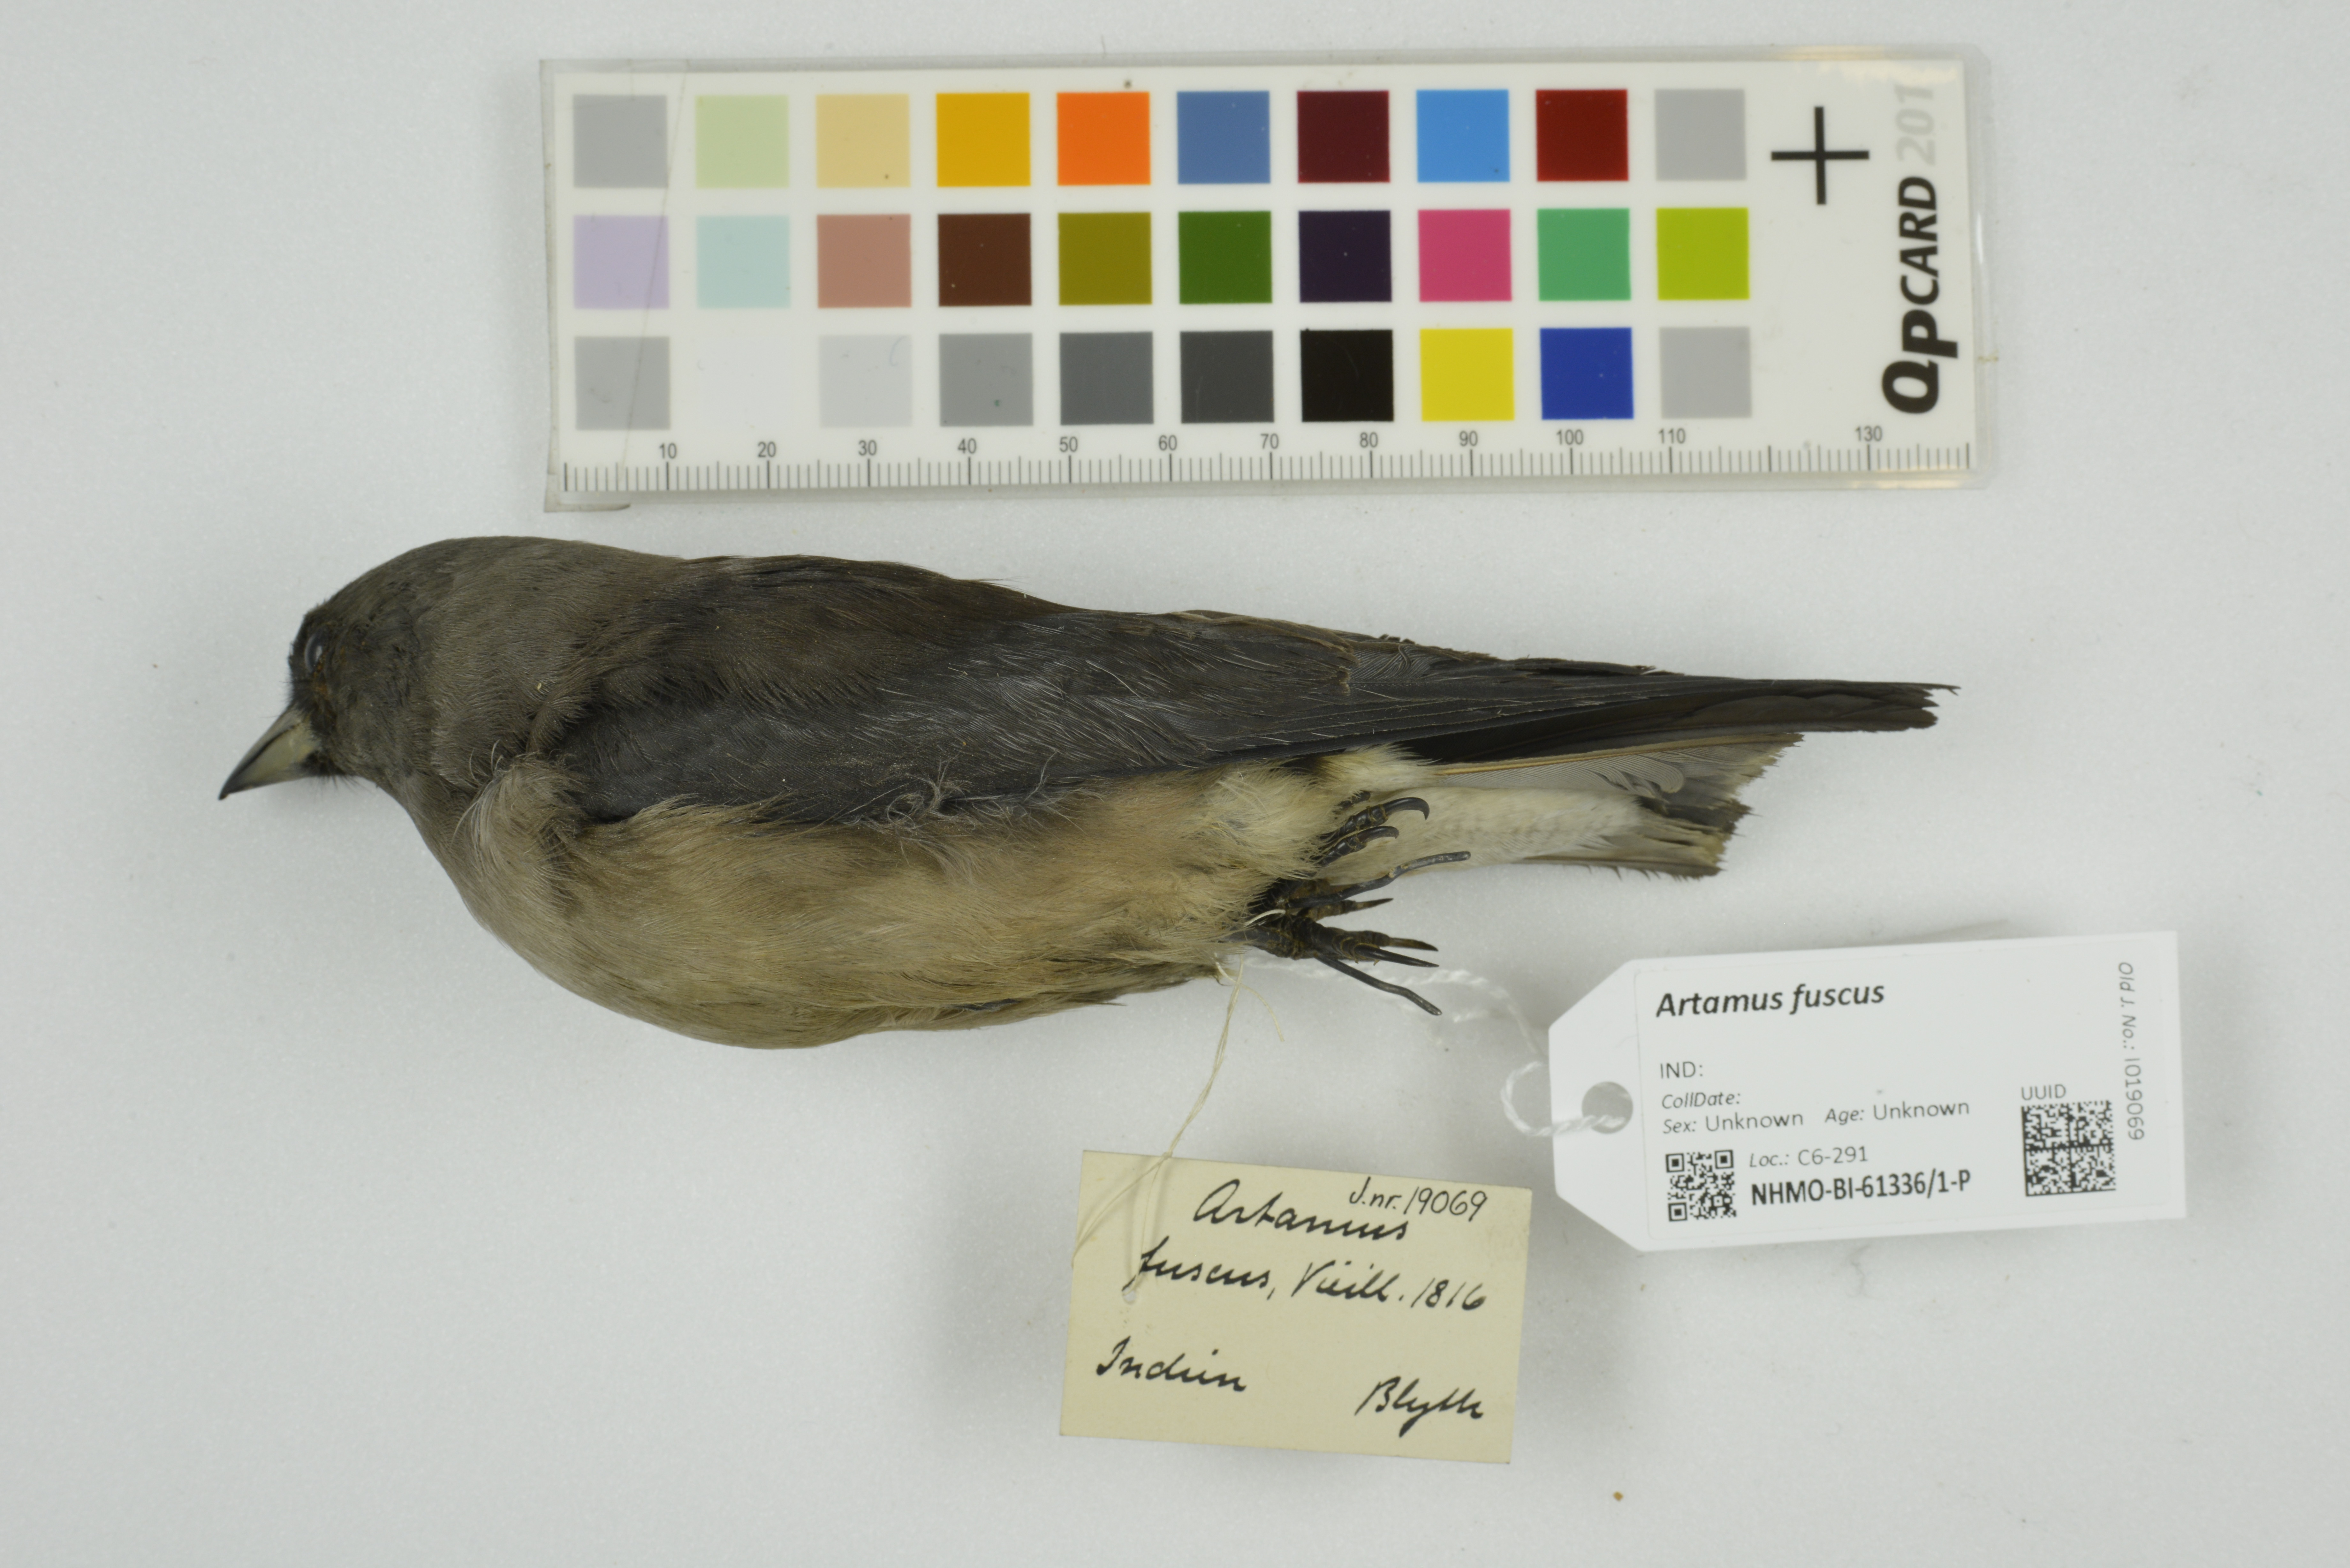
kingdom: Animalia
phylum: Chordata
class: Aves
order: Passeriformes
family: Artamidae
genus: Artamus
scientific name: Artamus fuscus
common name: Ashy woodswallow
